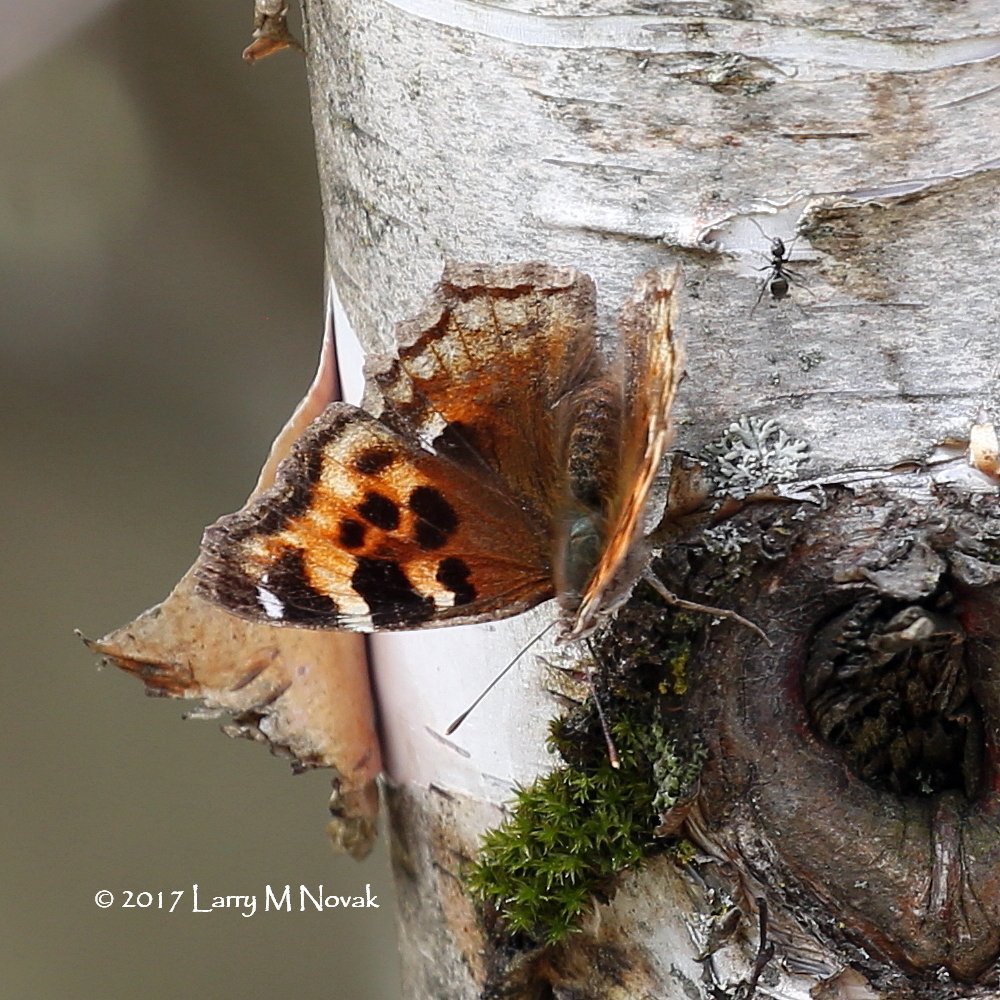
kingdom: Animalia
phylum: Arthropoda
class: Insecta
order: Lepidoptera
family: Nymphalidae
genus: Polygonia
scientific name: Polygonia vaualbum
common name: Compton Tortoiseshell
